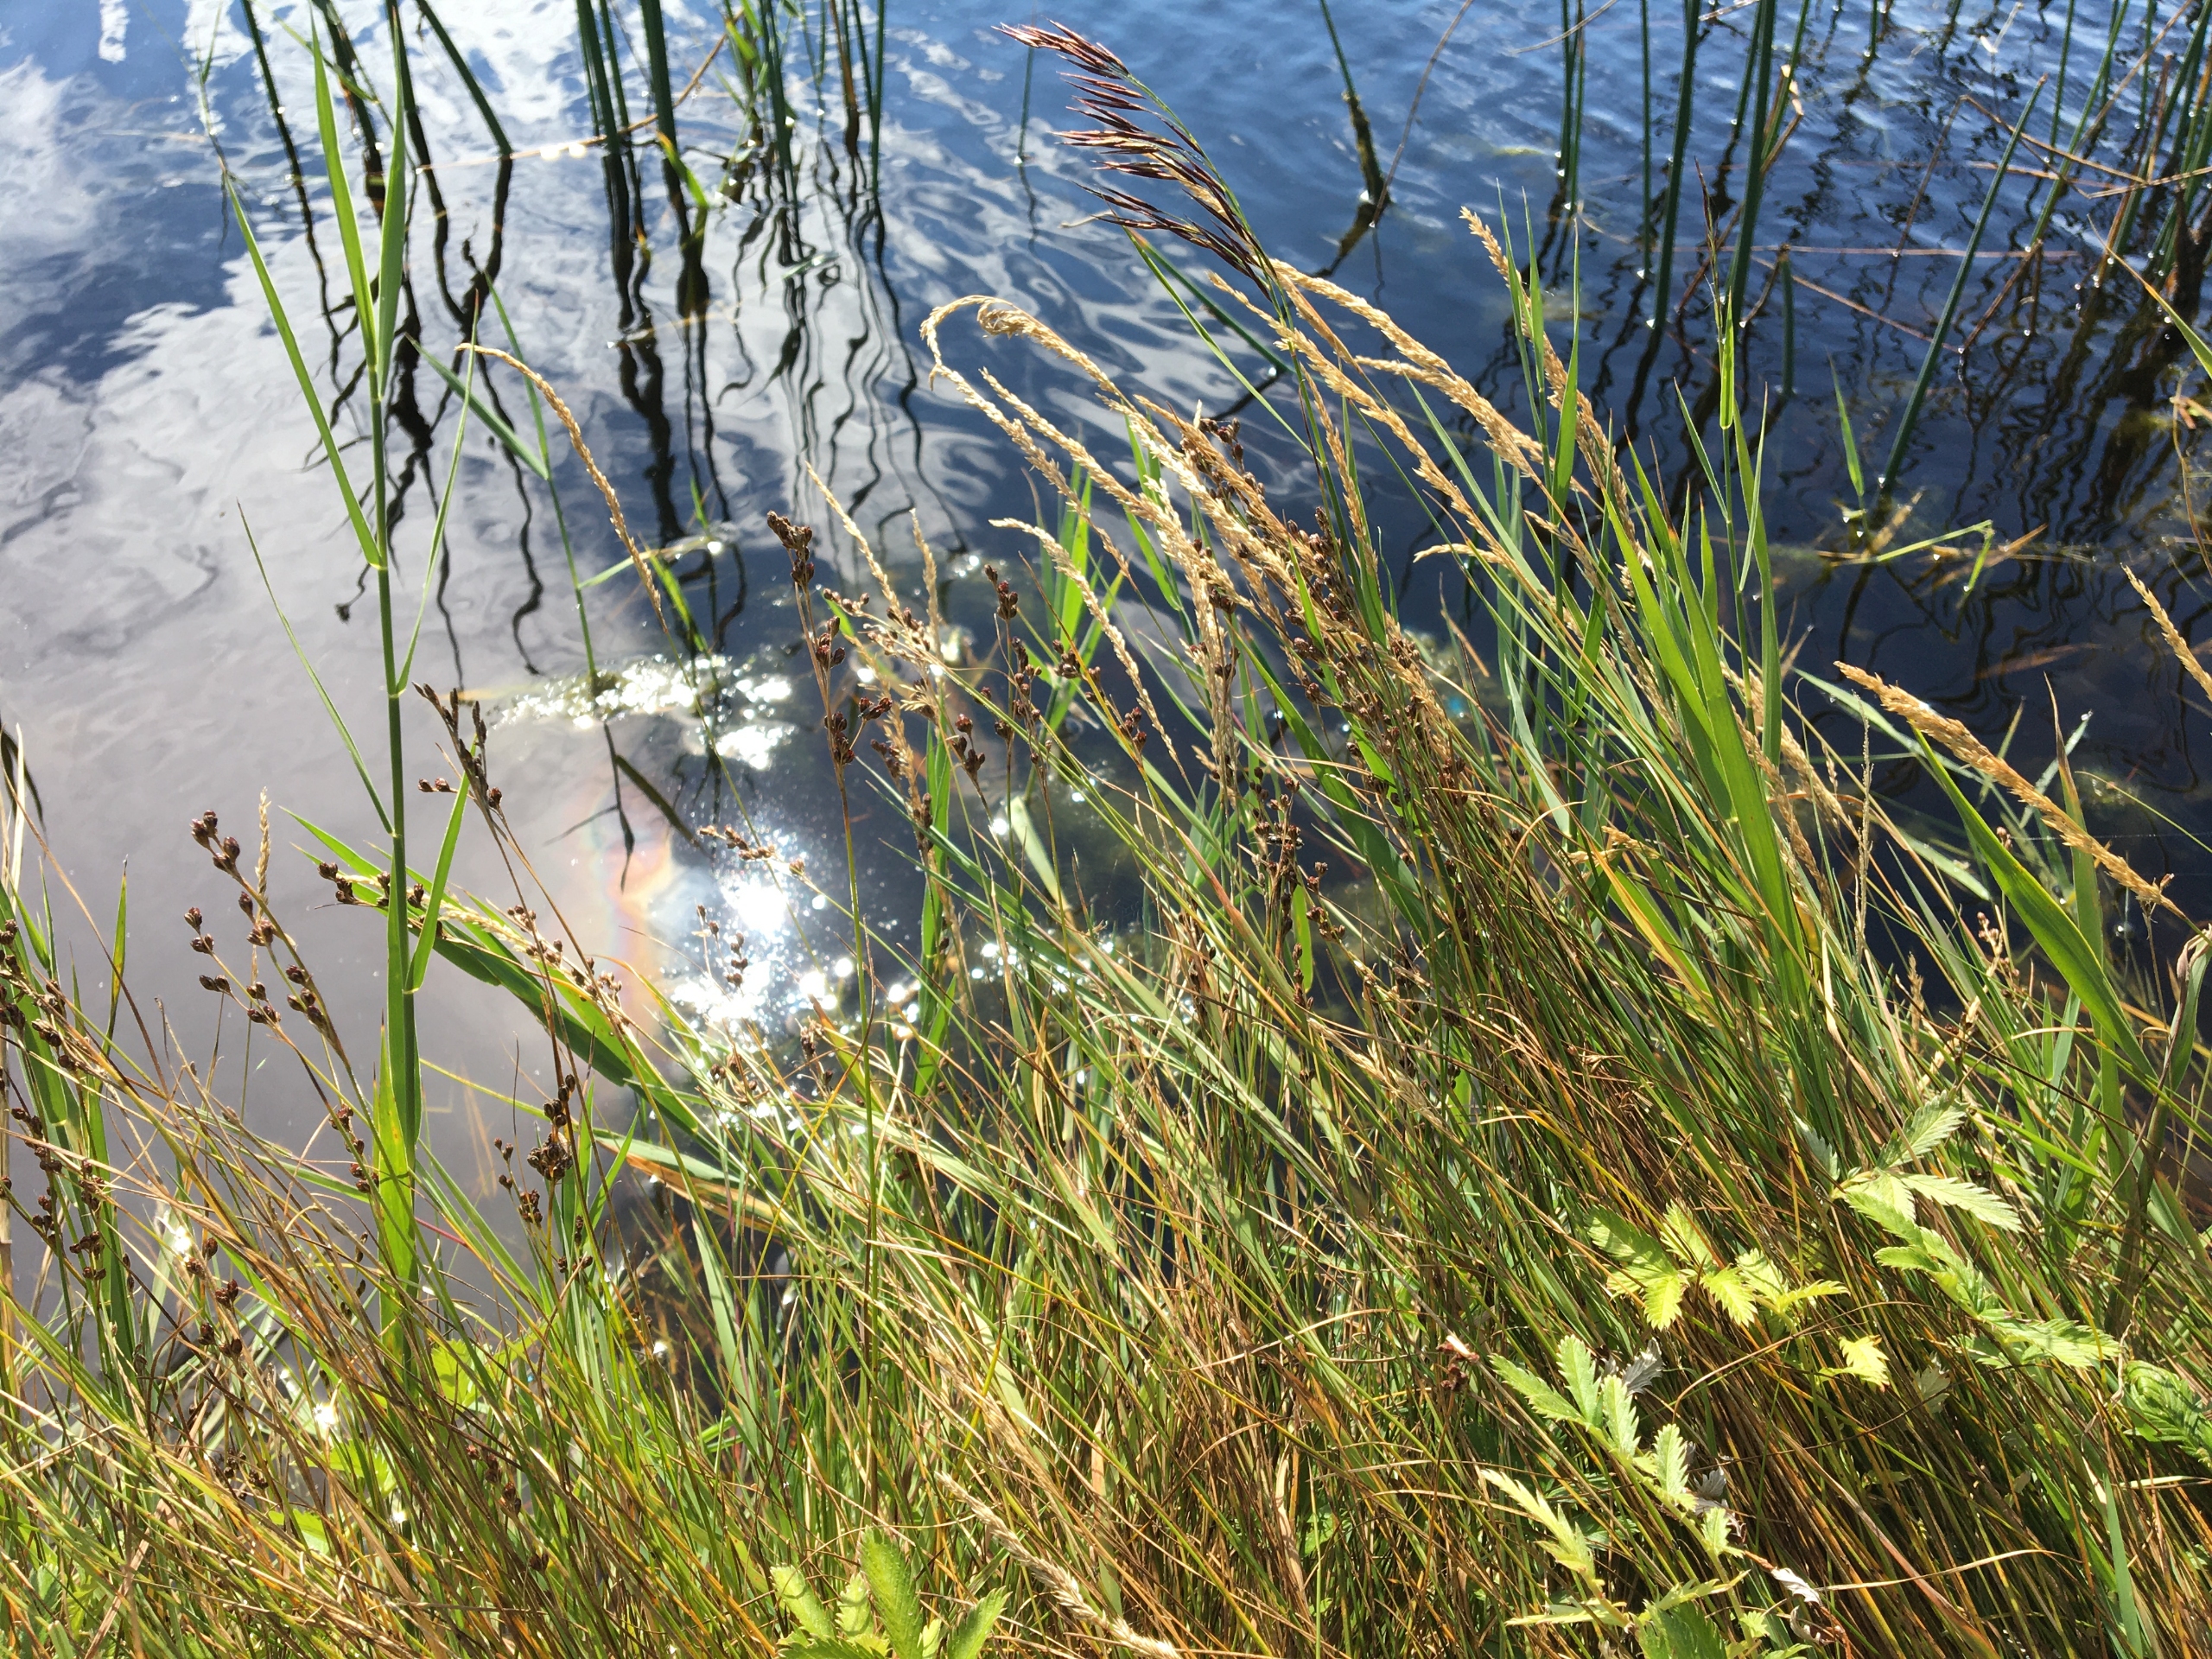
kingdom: Plantae
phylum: Tracheophyta
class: Liliopsida
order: Poales
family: Juncaceae
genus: Juncus
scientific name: Juncus gerardi
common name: Harril
